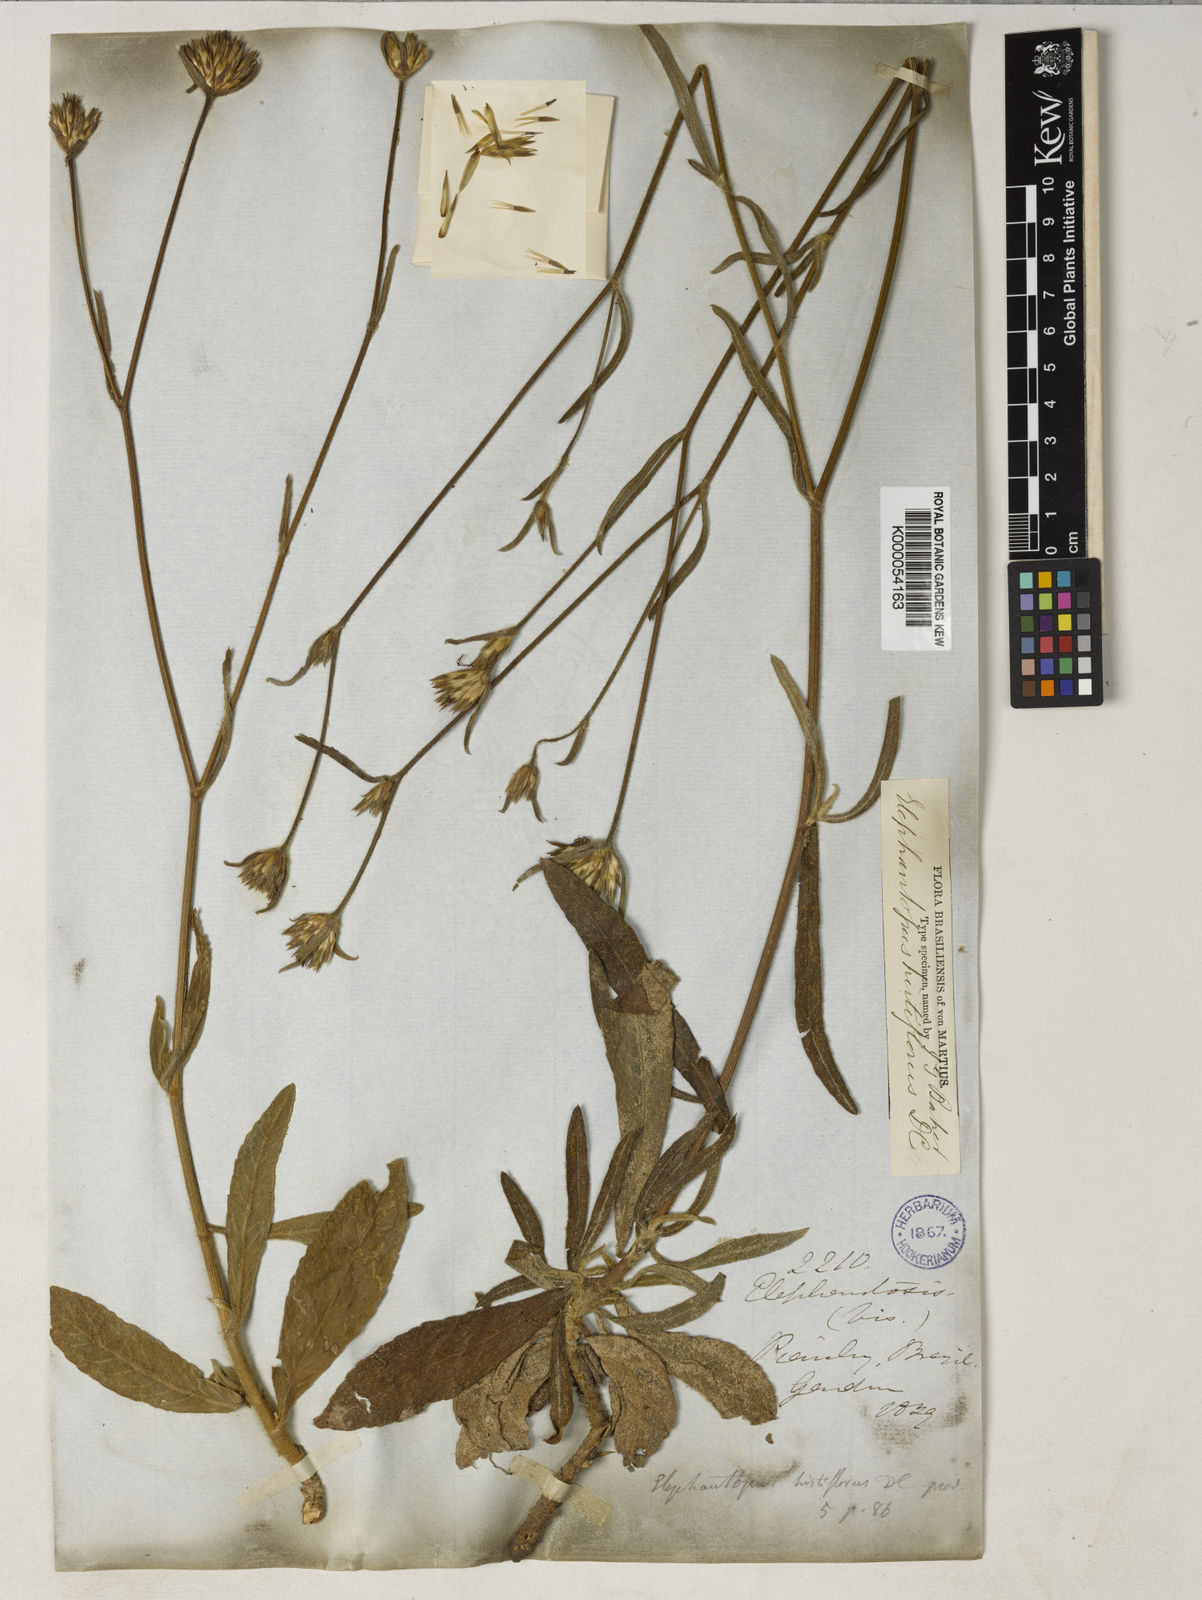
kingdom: Plantae
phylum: Tracheophyta
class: Magnoliopsida
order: Asterales
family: Asteraceae
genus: Elephantopus
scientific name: Elephantopus hirtiflorus
